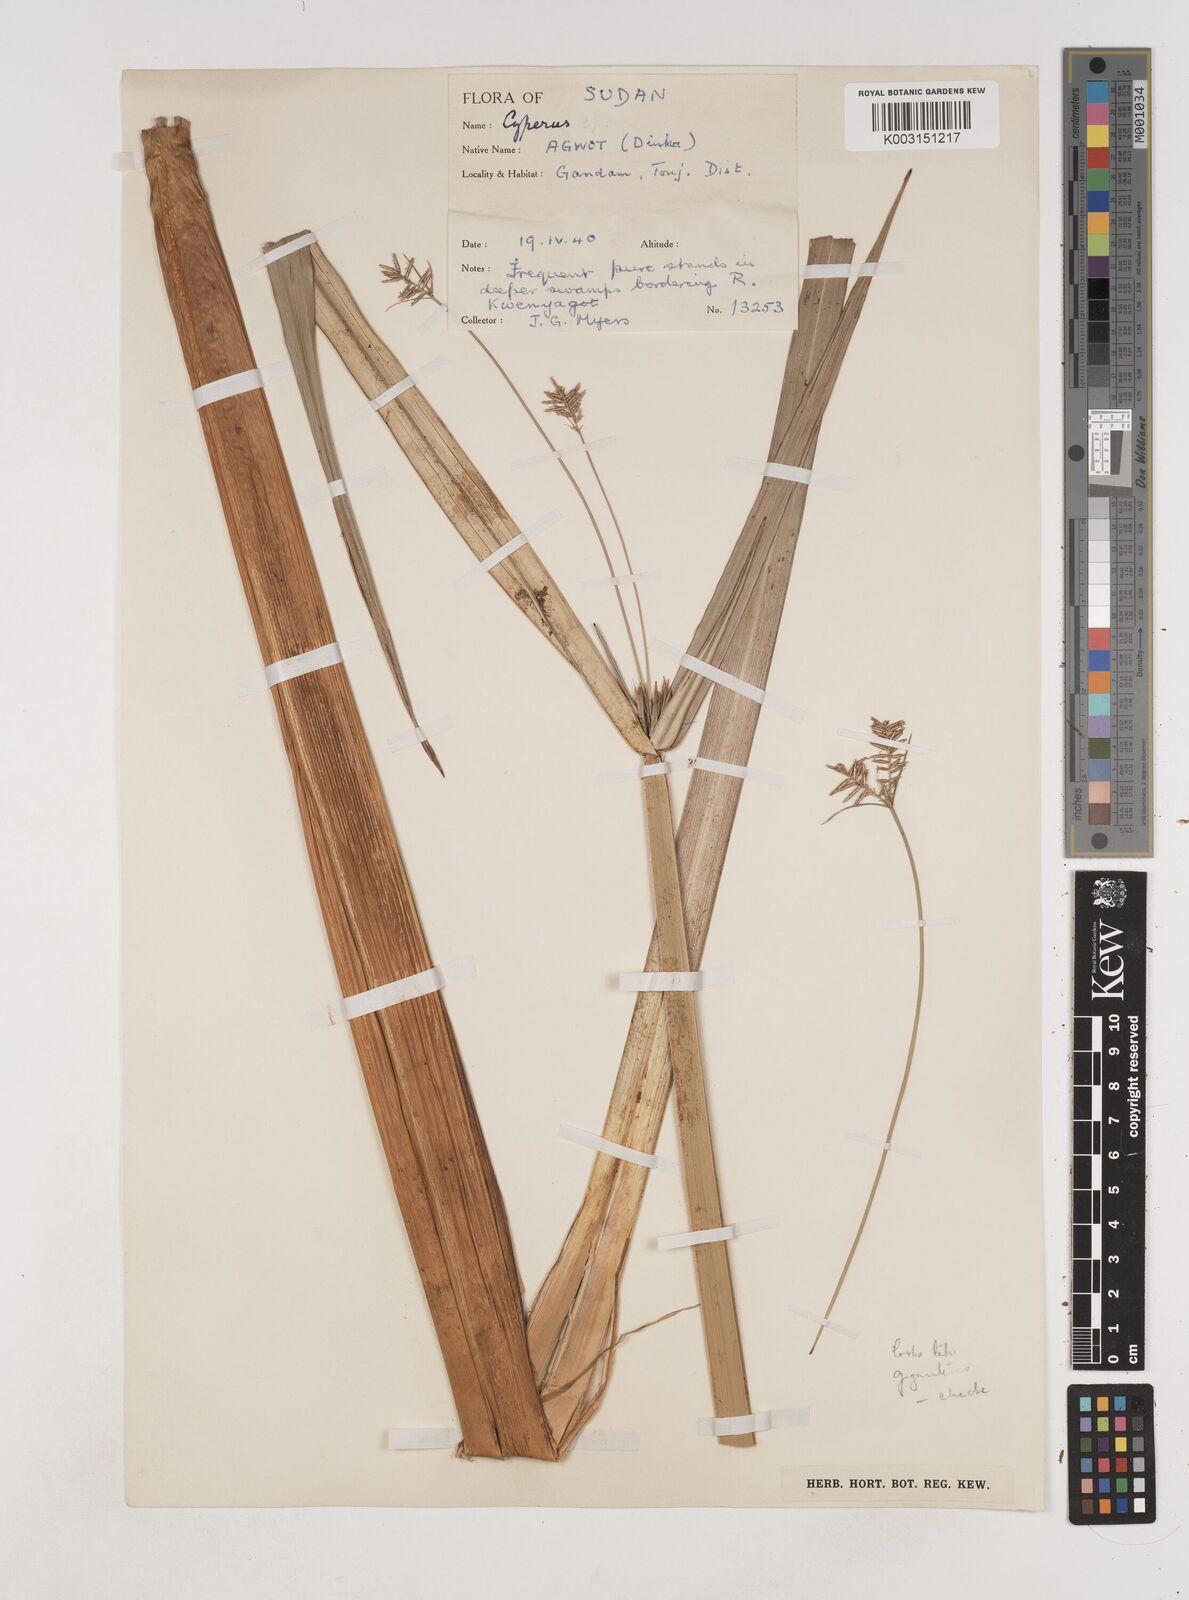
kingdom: Plantae
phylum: Tracheophyta
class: Liliopsida
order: Poales
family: Cyperaceae
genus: Cyperus
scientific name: Cyperus
